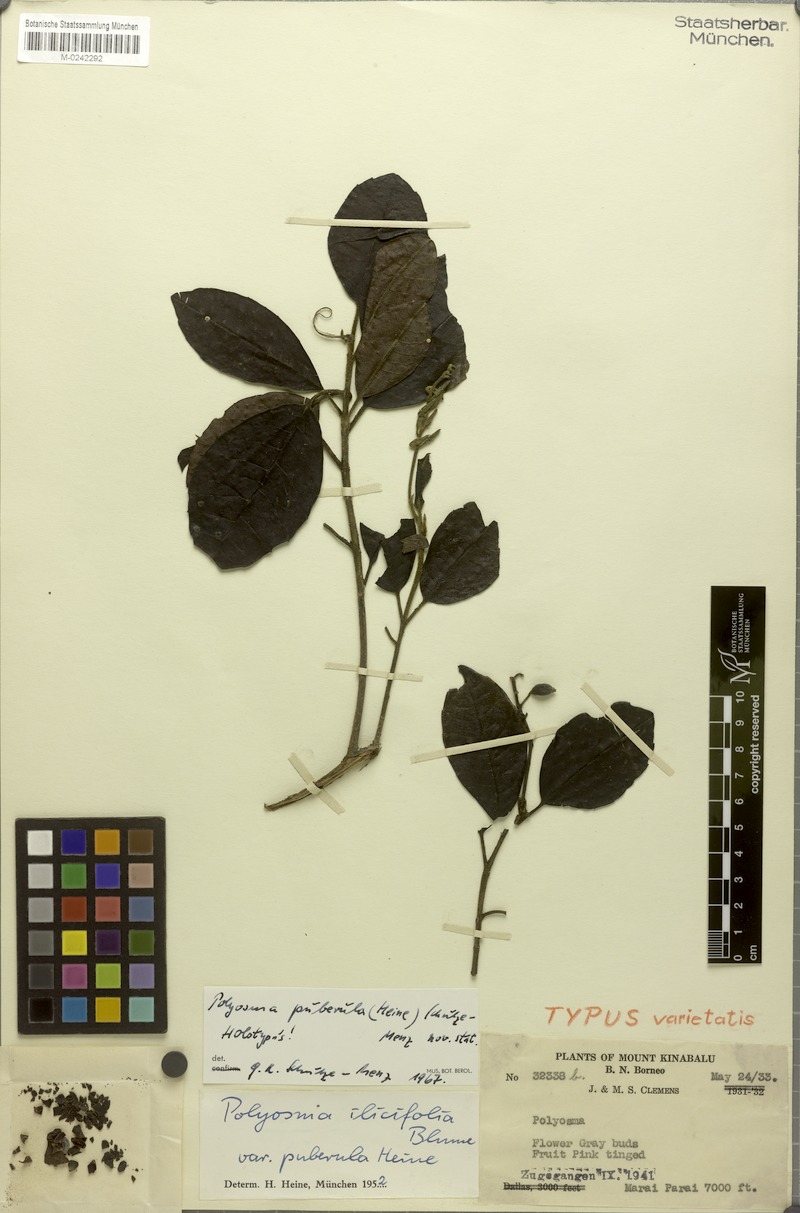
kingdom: Plantae
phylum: Tracheophyta
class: Magnoliopsida
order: Escalloniales
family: Escalloniaceae
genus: Polyosma
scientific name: Polyosma
